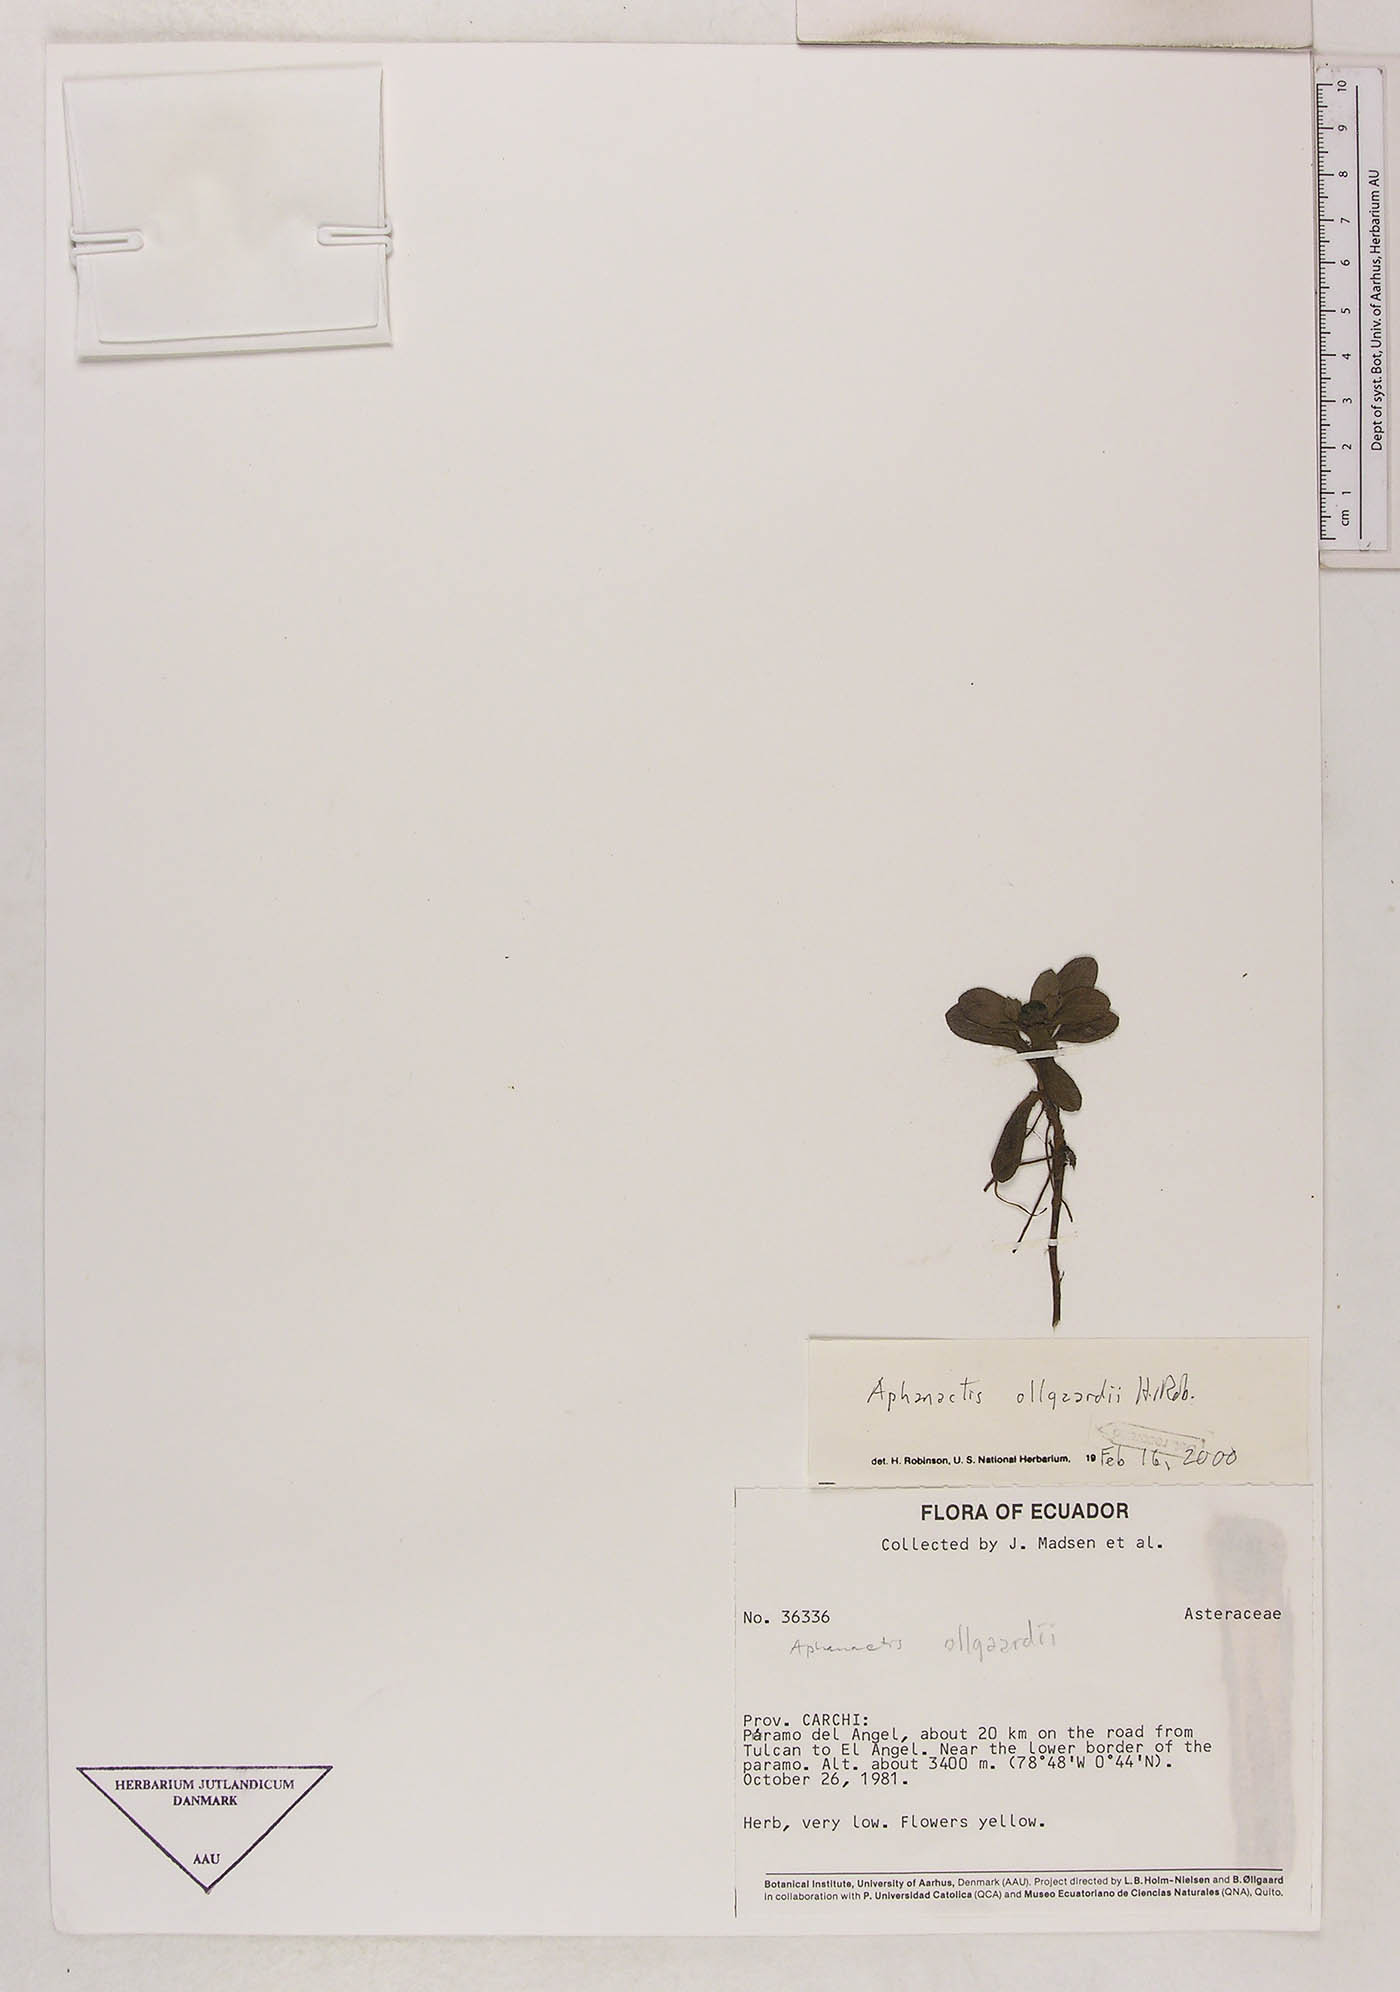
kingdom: Plantae
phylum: Tracheophyta
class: Magnoliopsida
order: Asterales
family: Asteraceae
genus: Aphanactis
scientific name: Aphanactis ollgaardii
